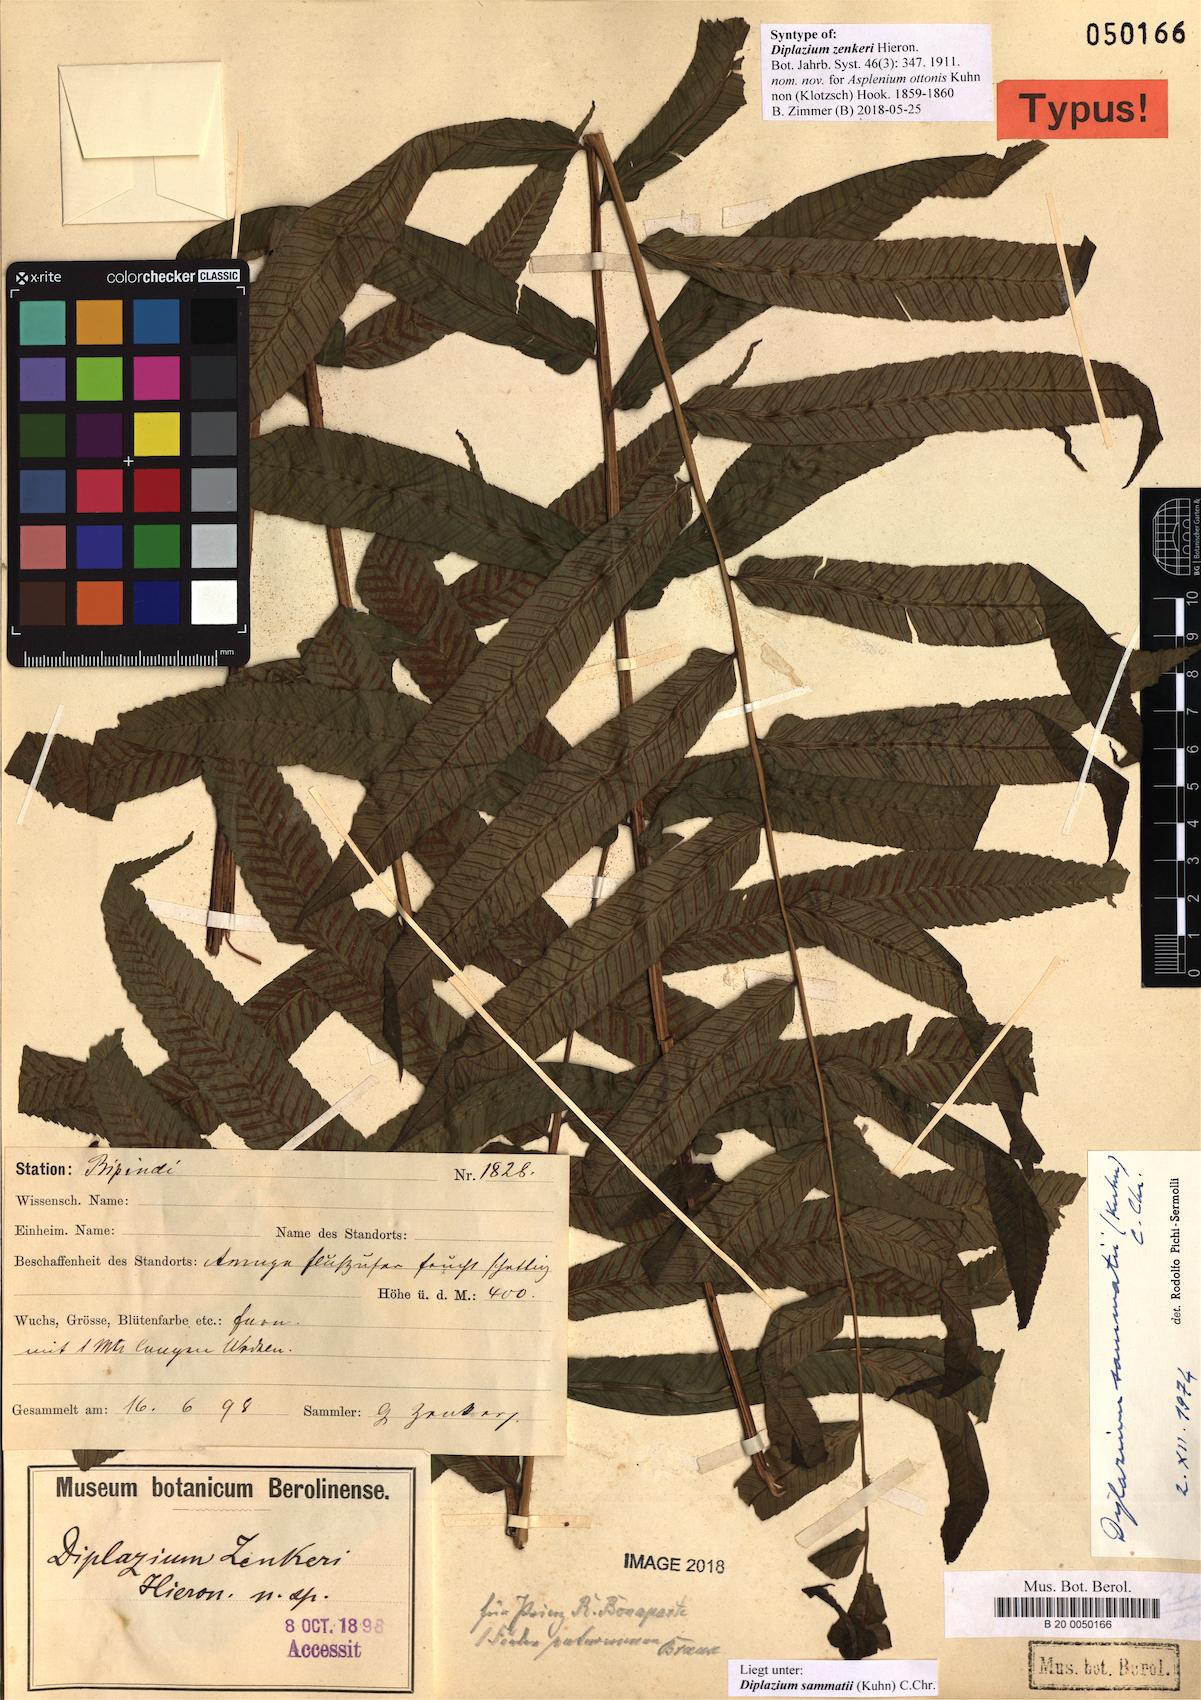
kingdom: Plantae
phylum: Tracheophyta
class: Polypodiopsida
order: Polypodiales
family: Athyriaceae
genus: Diplazium
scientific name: Diplazium sammatii
